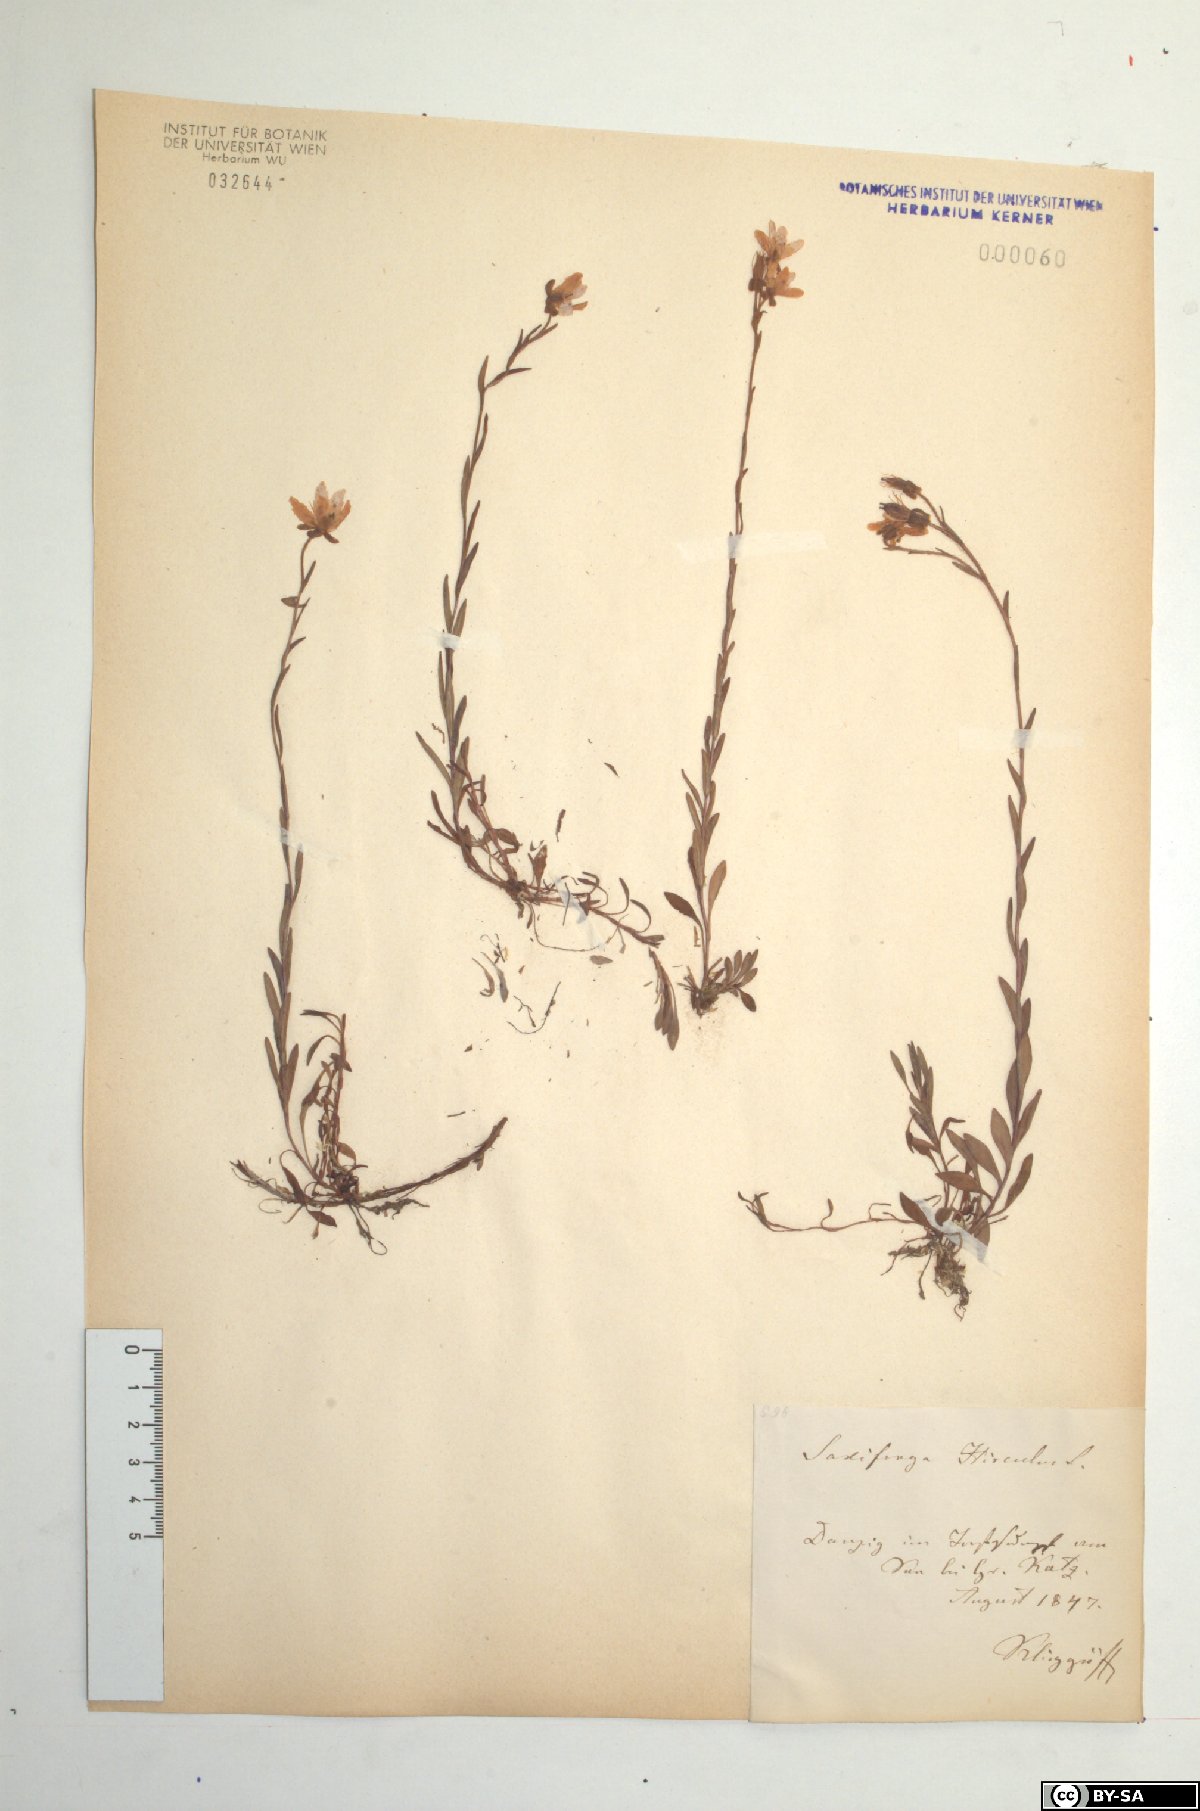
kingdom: Plantae
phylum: Tracheophyta
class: Magnoliopsida
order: Saxifragales
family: Saxifragaceae
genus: Saxifraga
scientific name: Saxifraga hirculus
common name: Yellow marsh saxifrage
